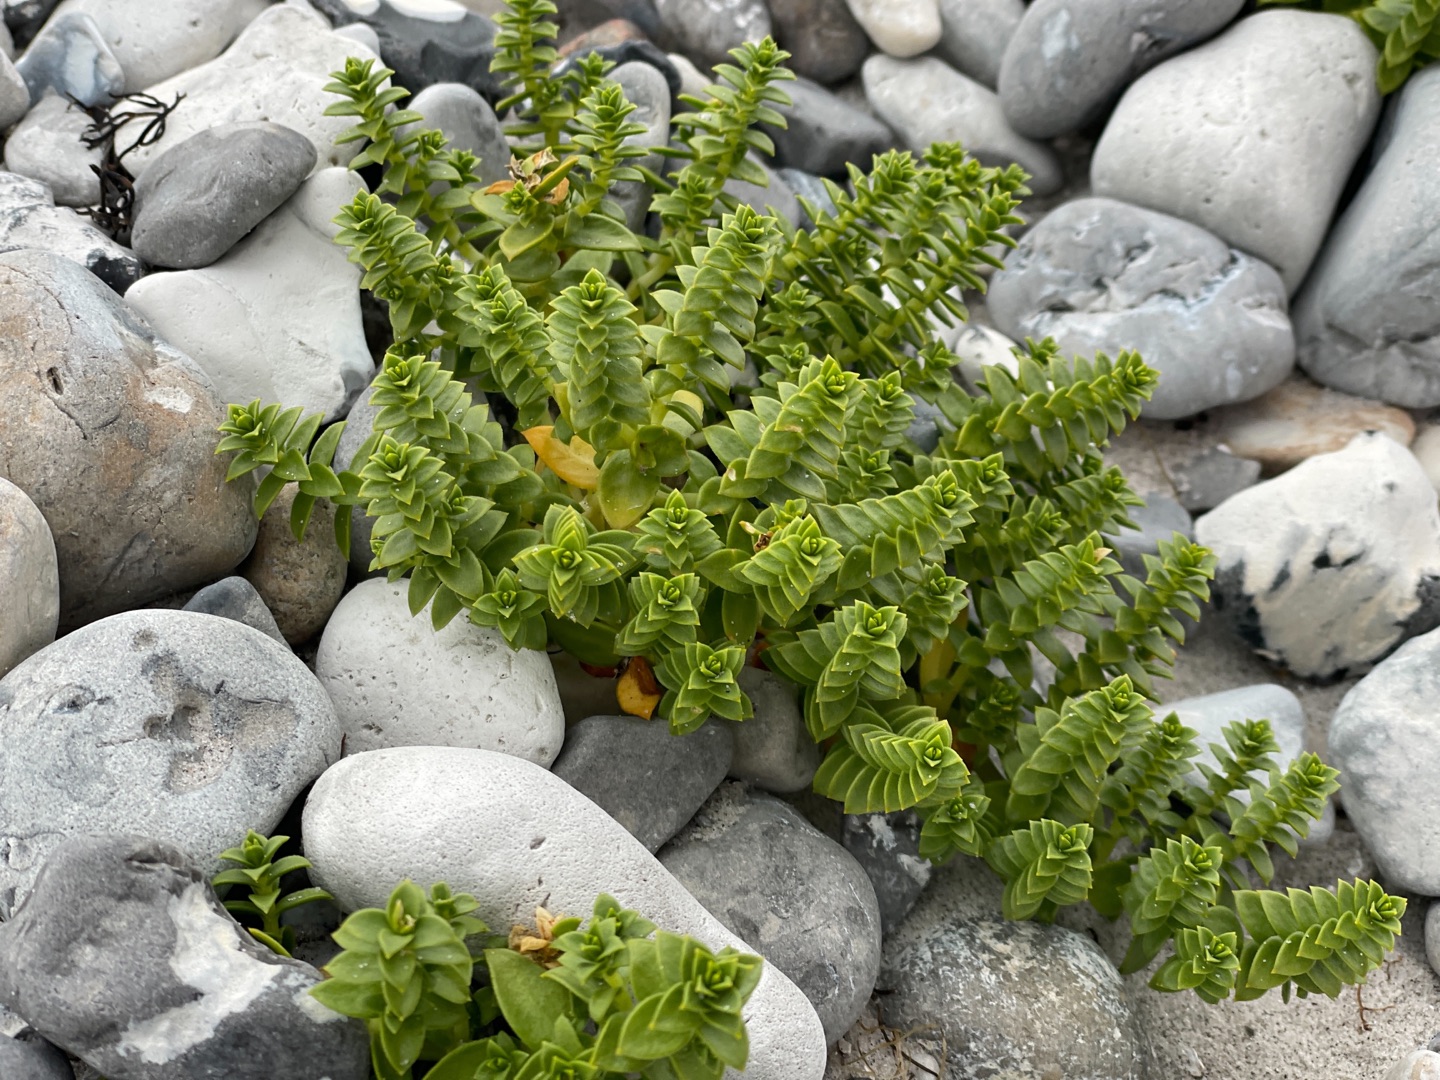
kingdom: Plantae
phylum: Tracheophyta
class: Magnoliopsida
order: Caryophyllales
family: Caryophyllaceae
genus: Honckenya
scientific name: Honckenya peploides
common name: Strandarve
